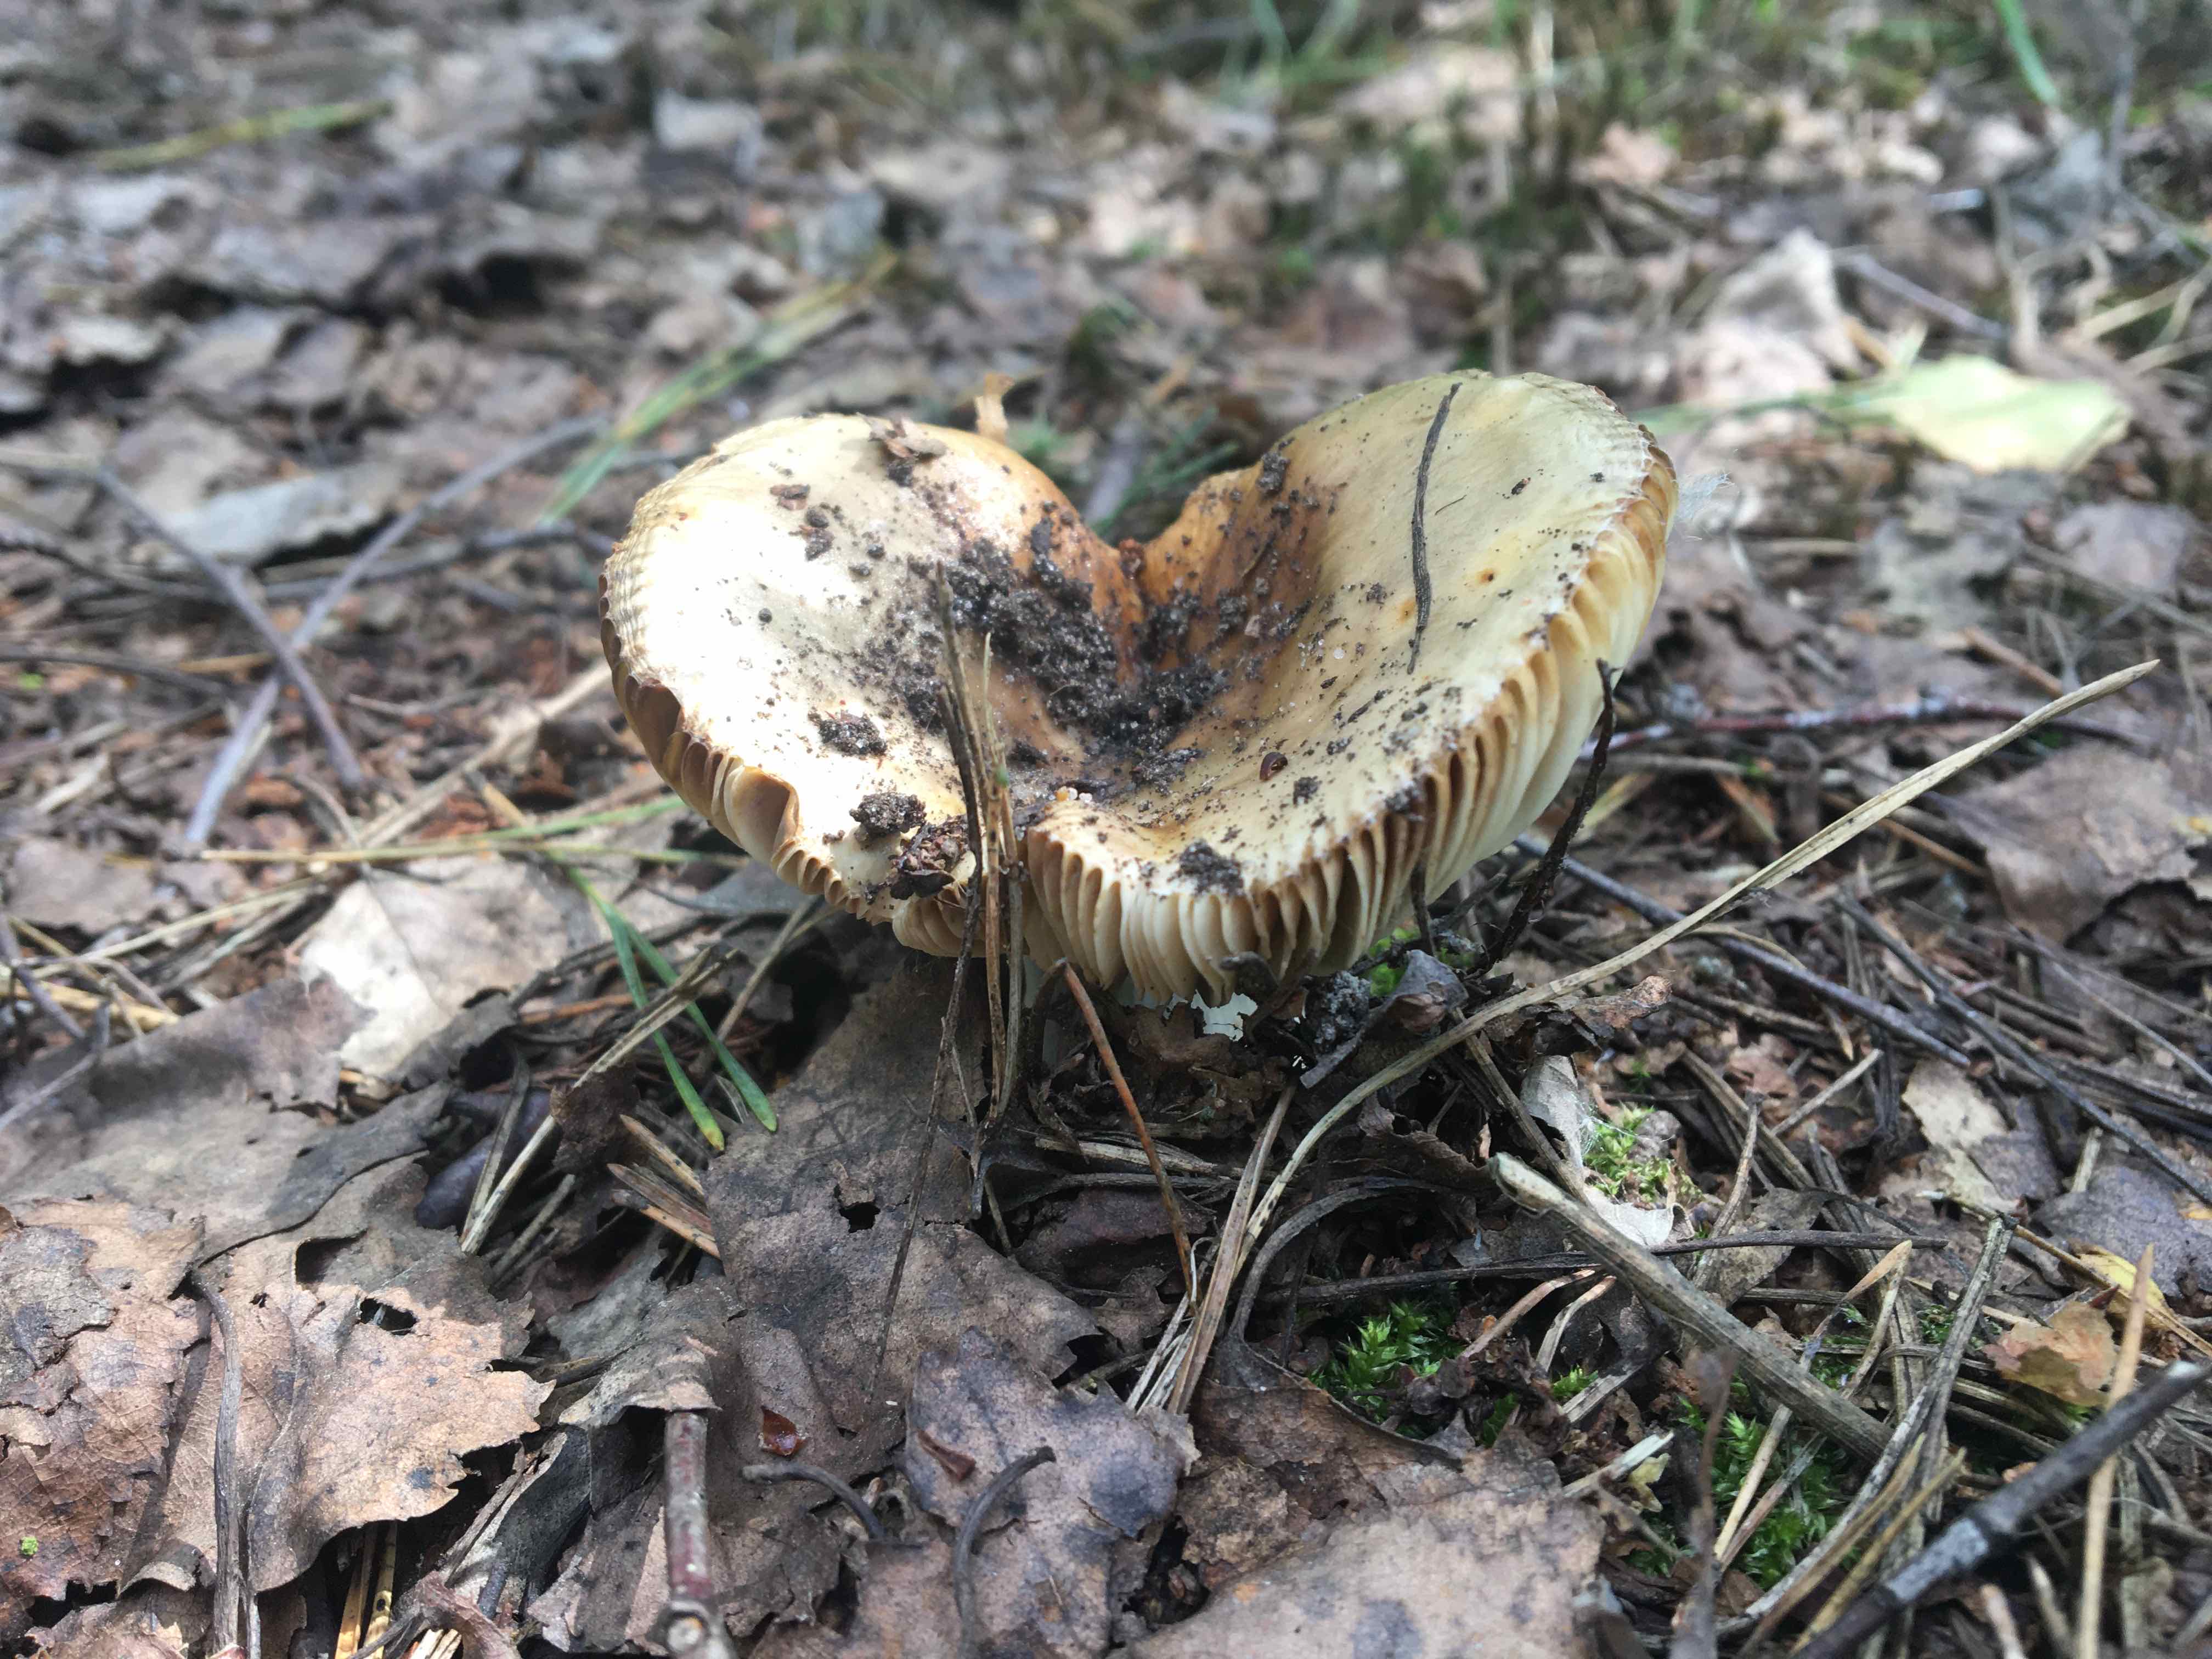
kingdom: Fungi
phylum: Basidiomycota
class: Agaricomycetes
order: Russulales
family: Russulaceae
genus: Russula
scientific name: Russula
